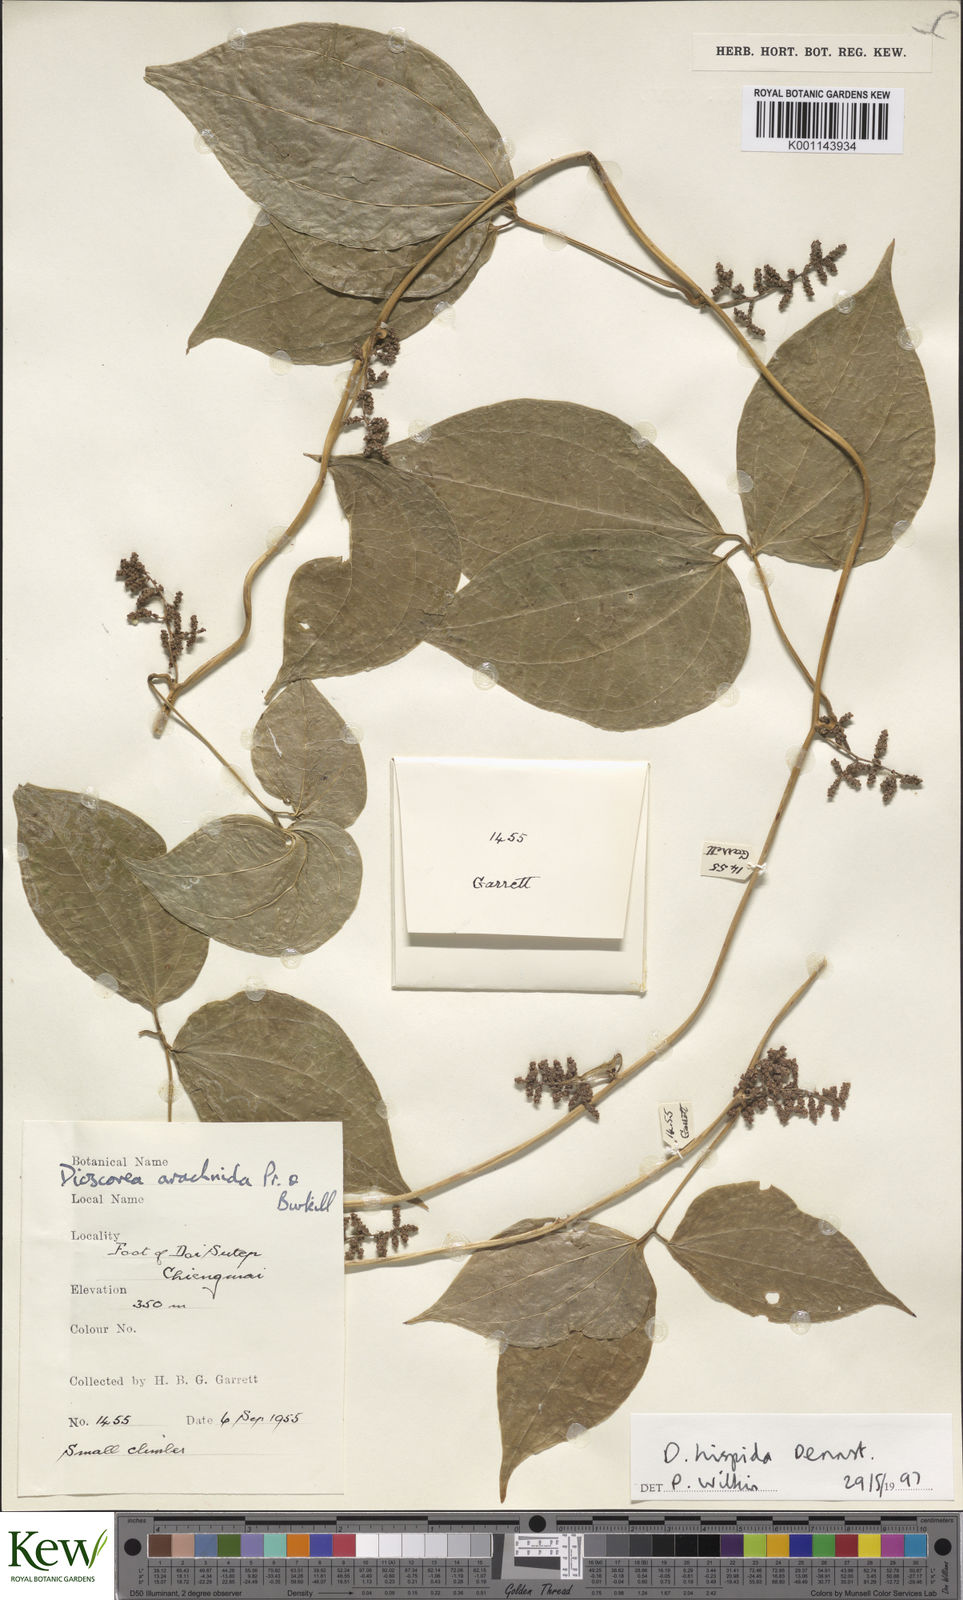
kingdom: Plantae
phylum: Tracheophyta
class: Liliopsida
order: Dioscoreales
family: Dioscoreaceae
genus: Dioscorea
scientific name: Dioscorea hispida
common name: Asiatic bitter yam
